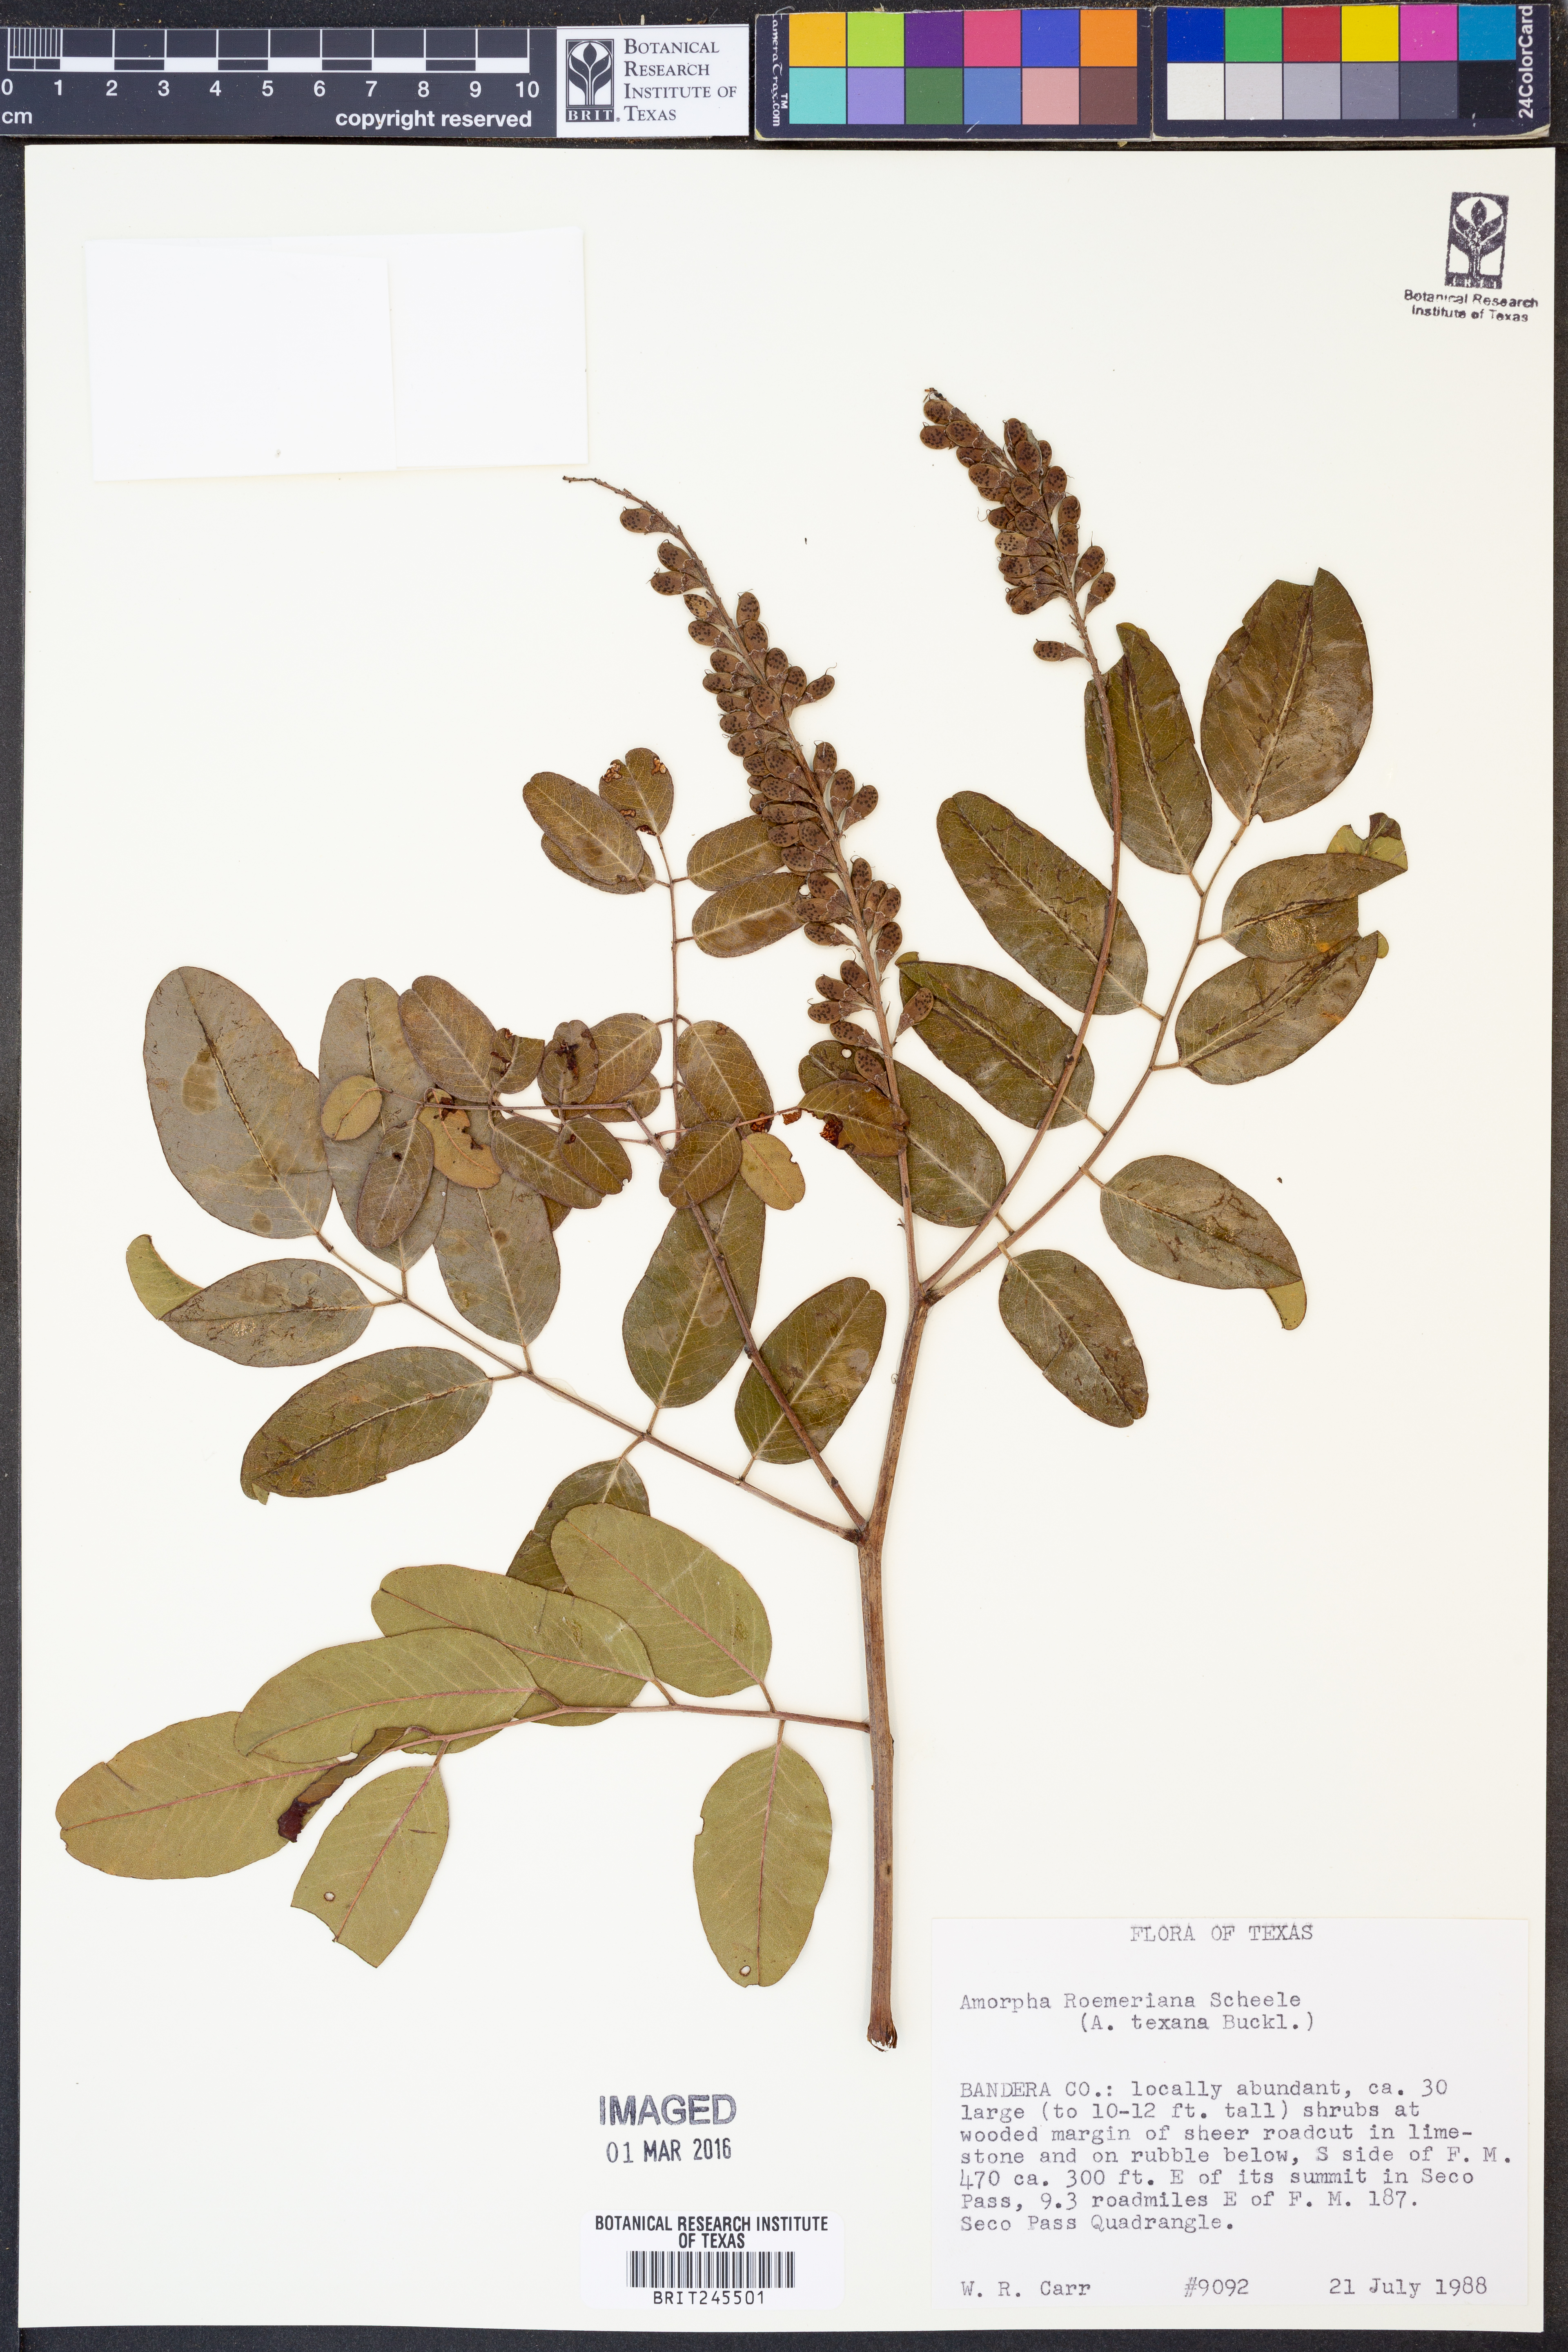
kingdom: Plantae
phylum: Tracheophyta
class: Magnoliopsida
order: Fabales
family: Fabaceae
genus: Amorpha
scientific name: Amorpha roemeriana
